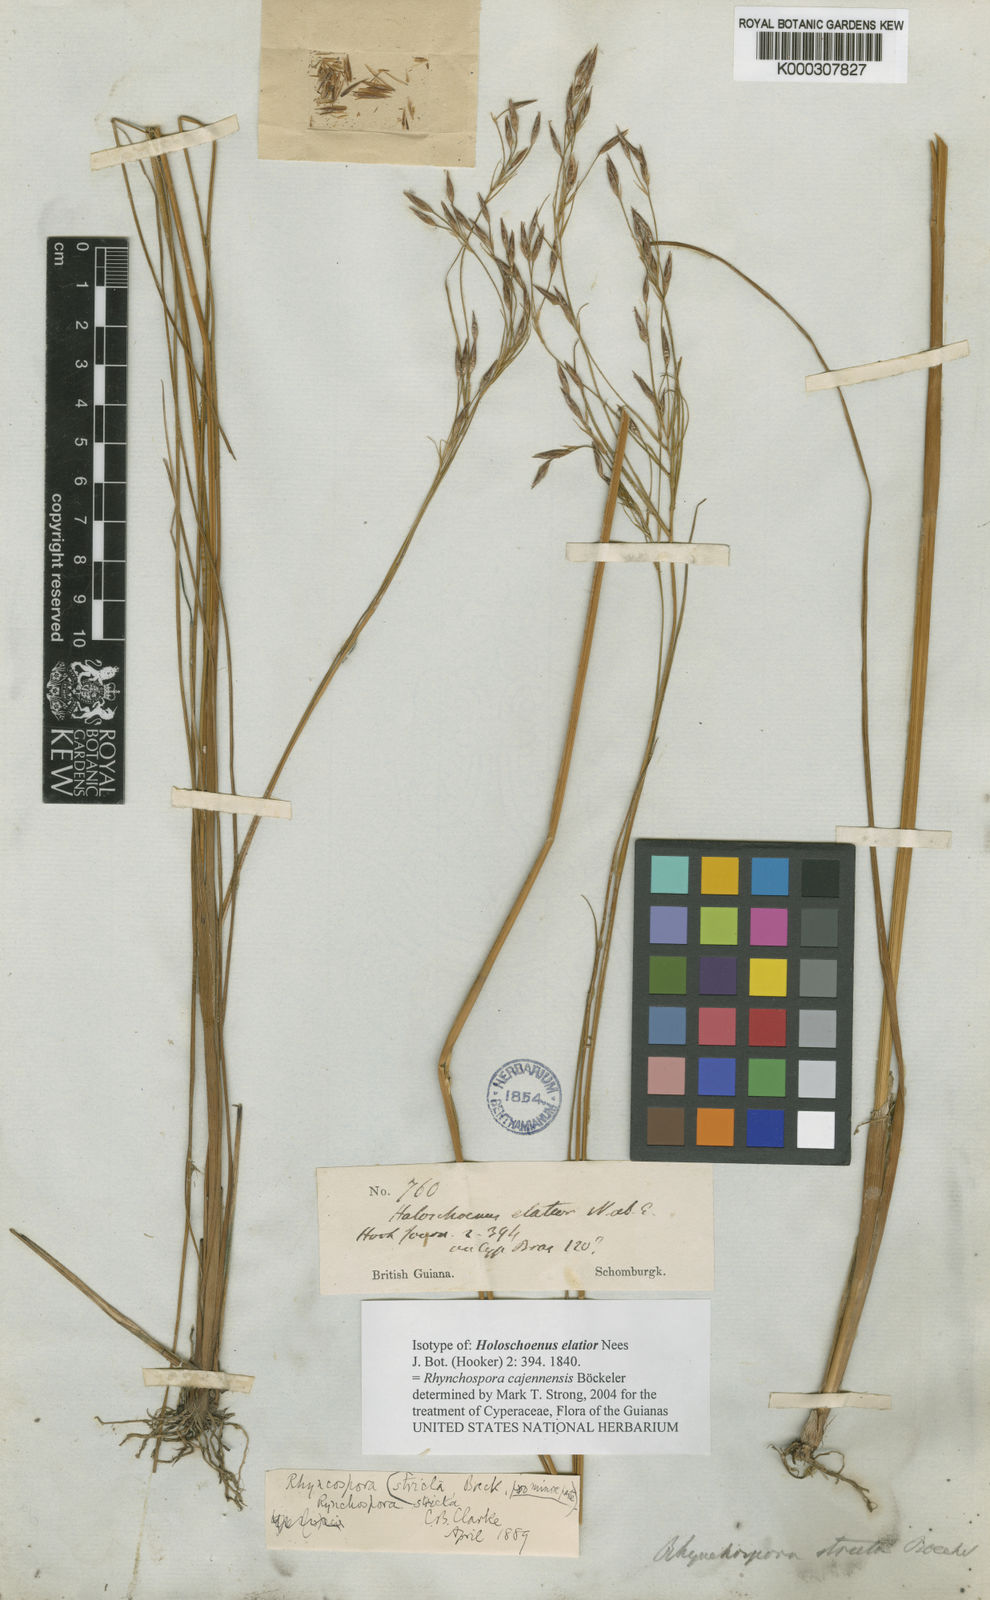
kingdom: Plantae
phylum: Tracheophyta
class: Liliopsida
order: Poales
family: Cyperaceae
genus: Rhynchospora
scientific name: Rhynchospora cajennensis
